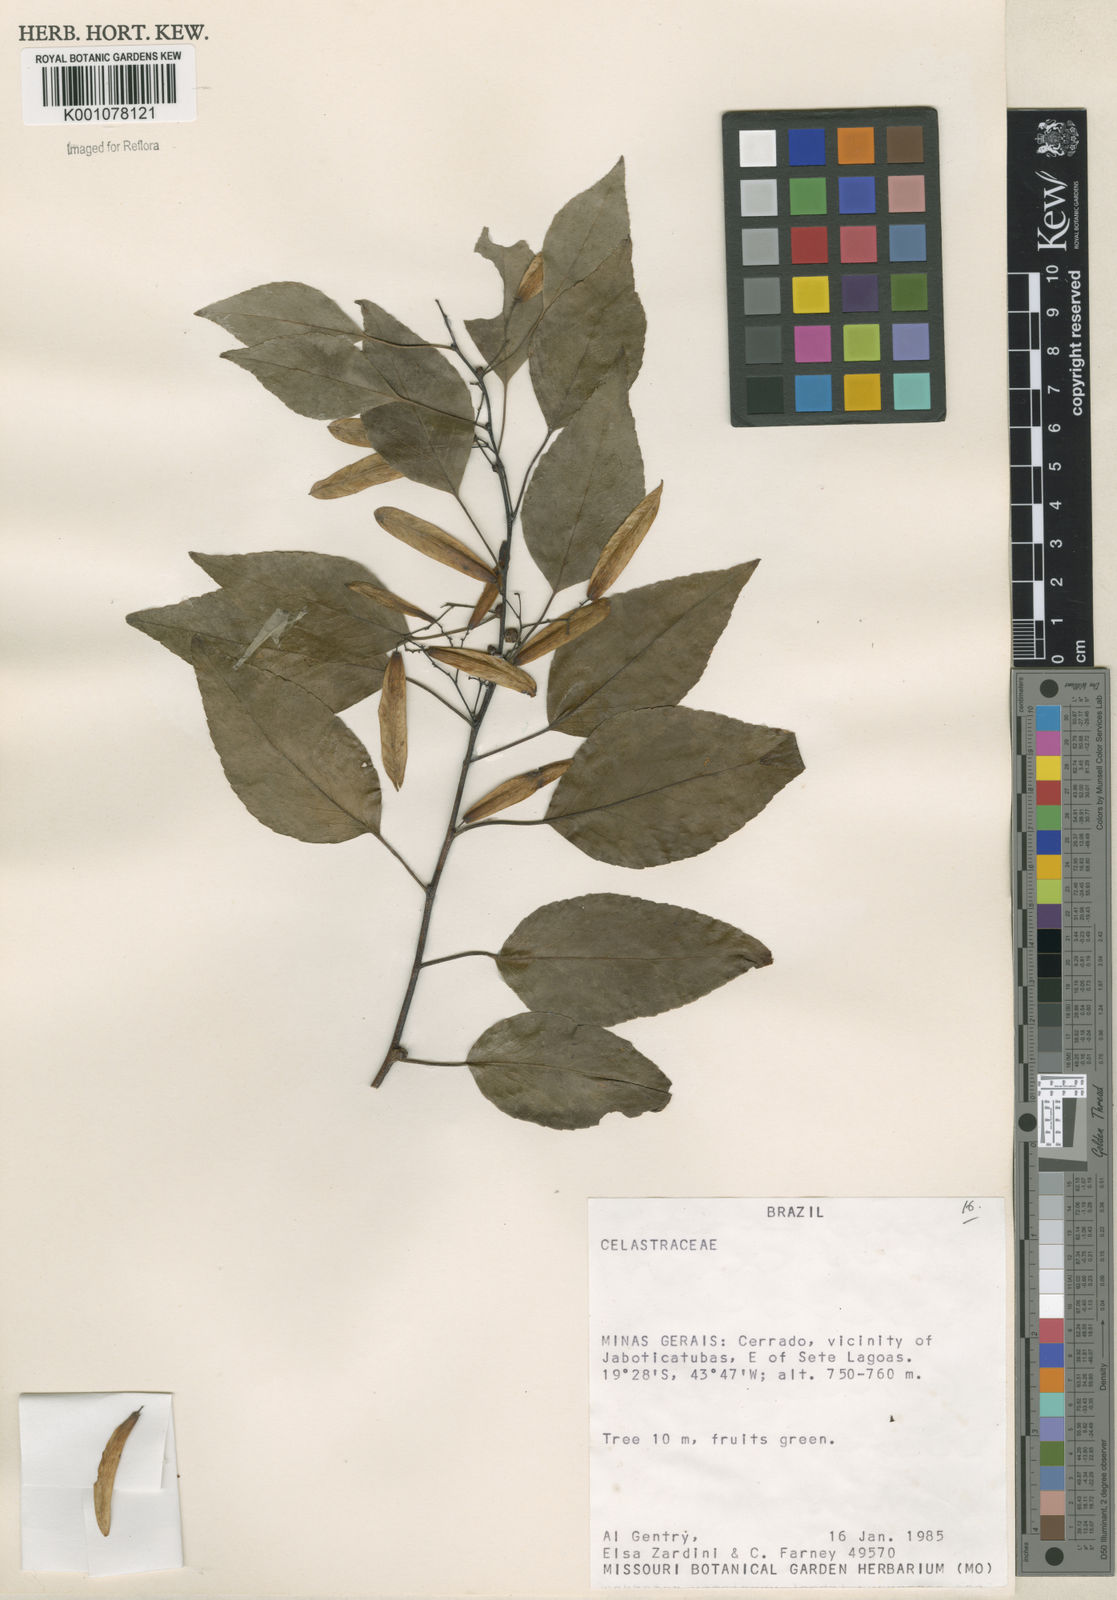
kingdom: Plantae
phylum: Tracheophyta
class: Magnoliopsida
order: Celastrales
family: Celastraceae
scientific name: Celastraceae
